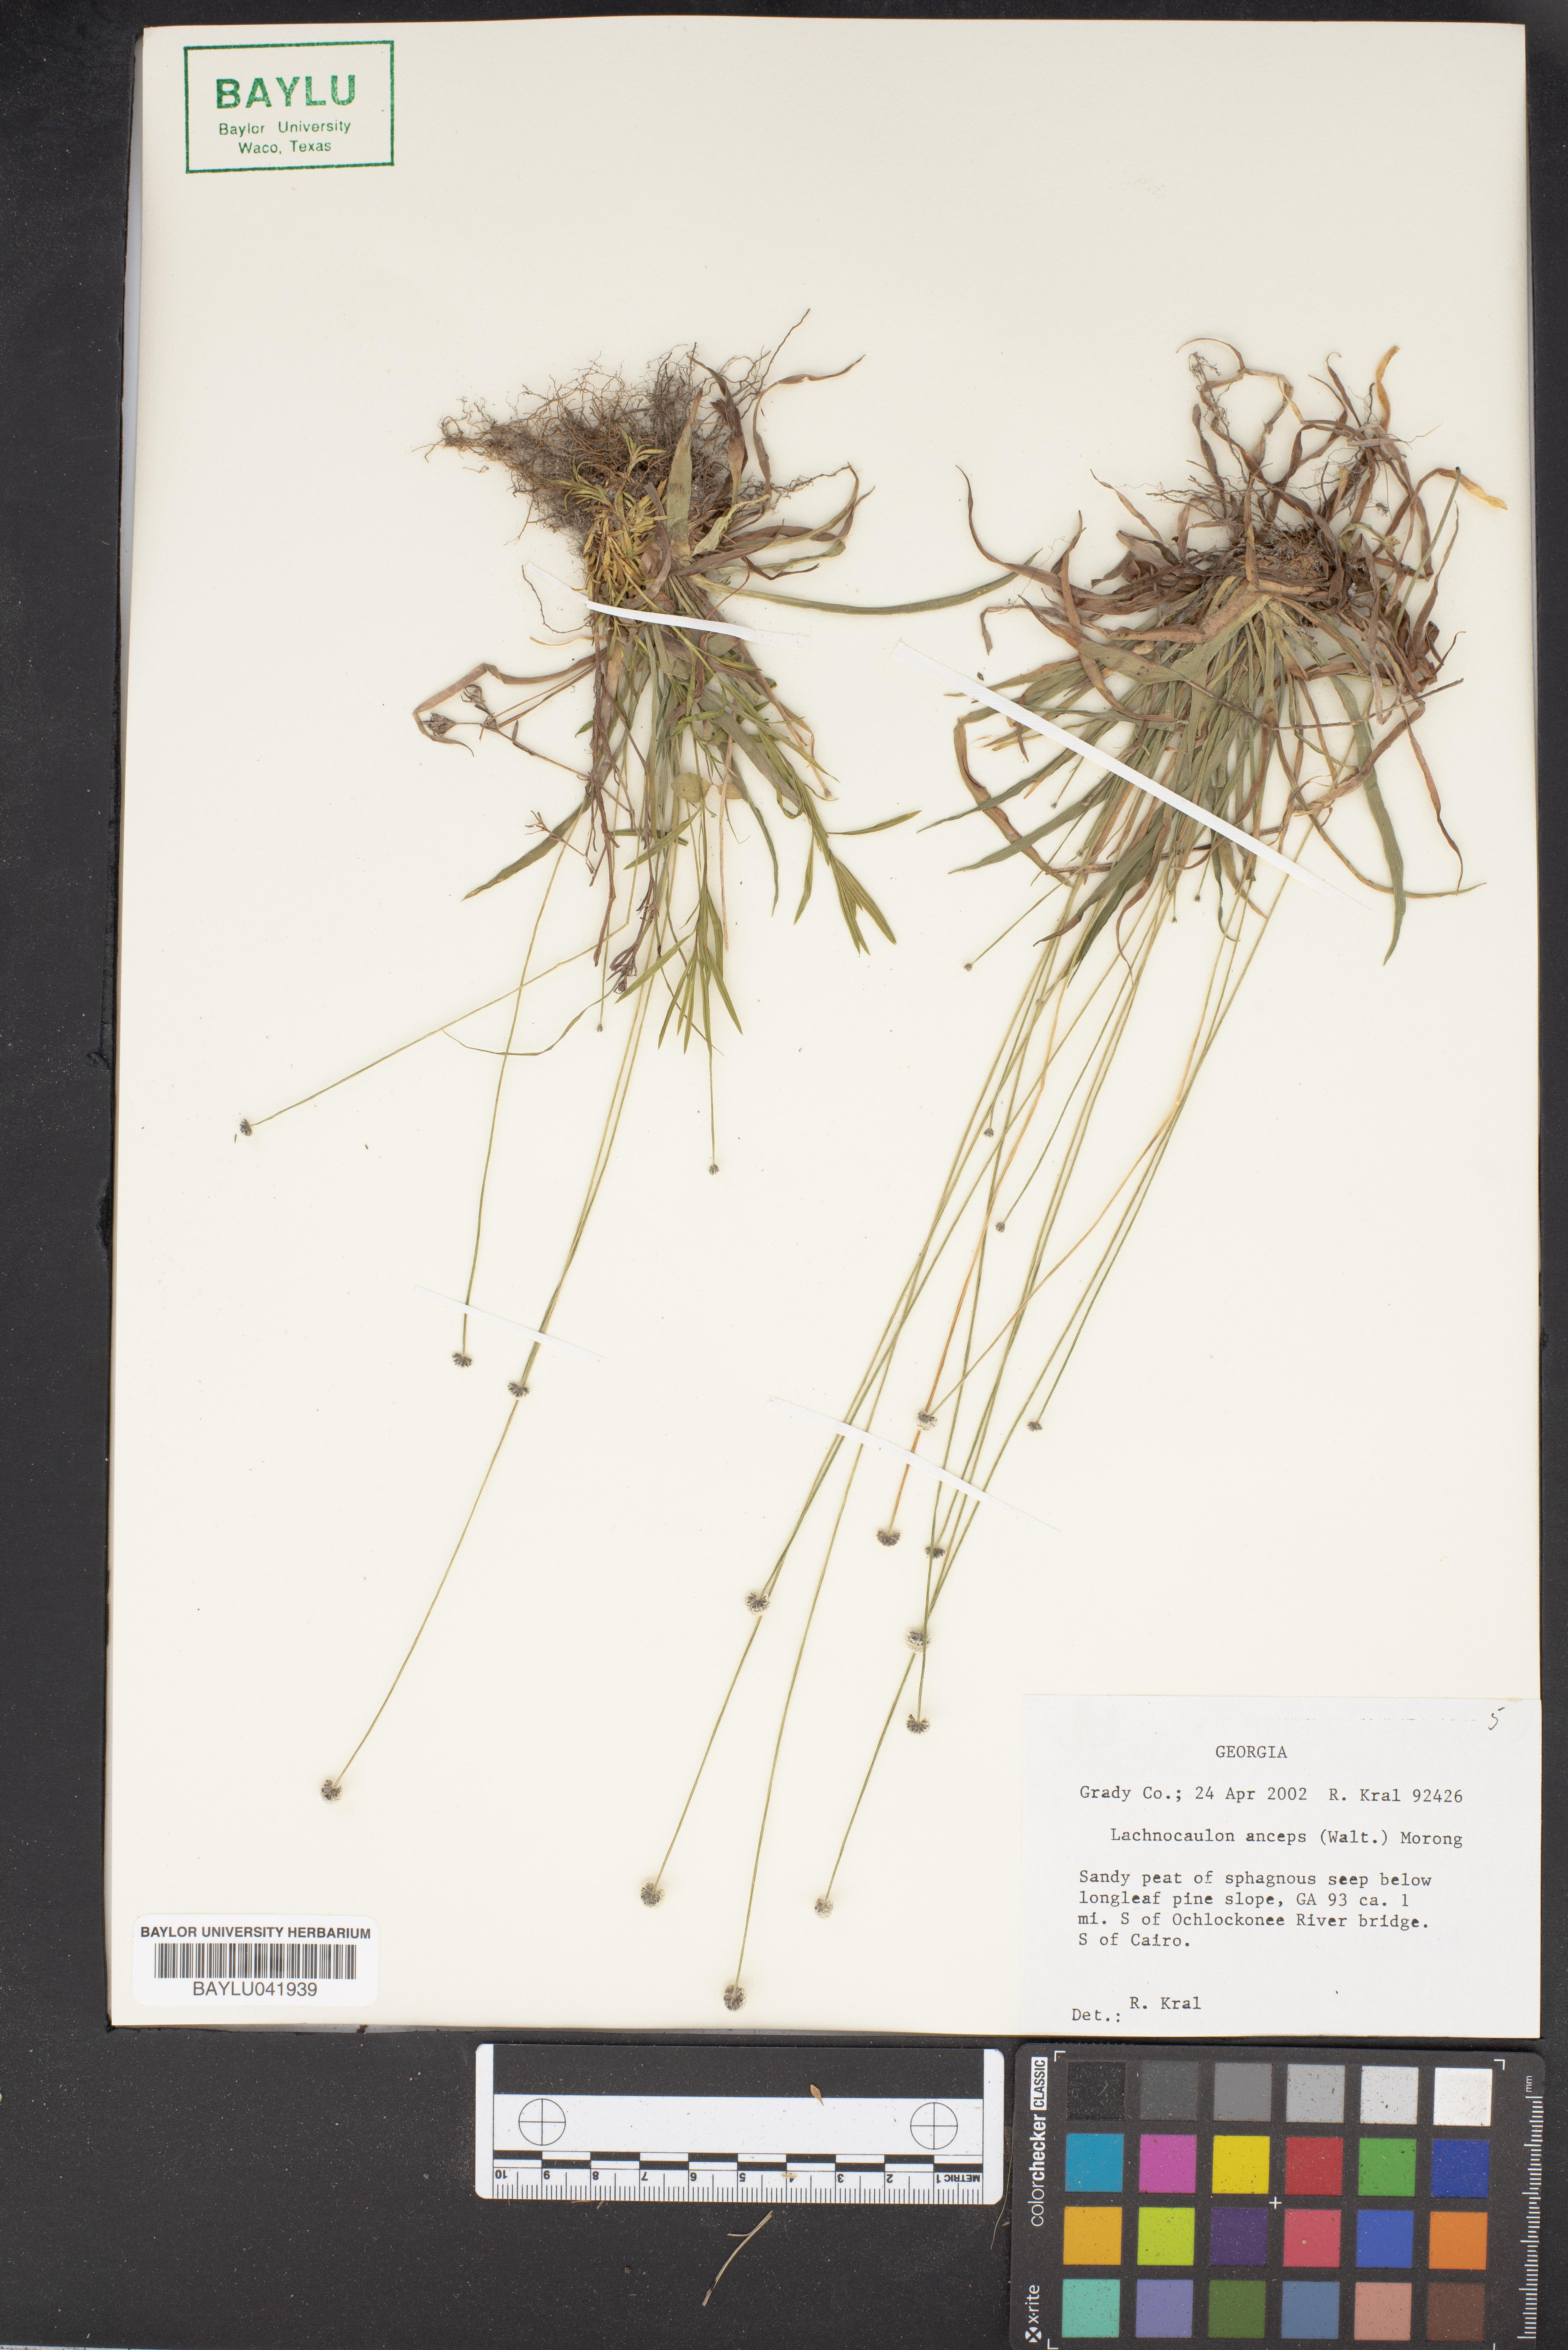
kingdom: Plantae
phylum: Tracheophyta
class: Liliopsida
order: Poales
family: Eriocaulaceae
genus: Paepalanthus
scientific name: Paepalanthus anceps
